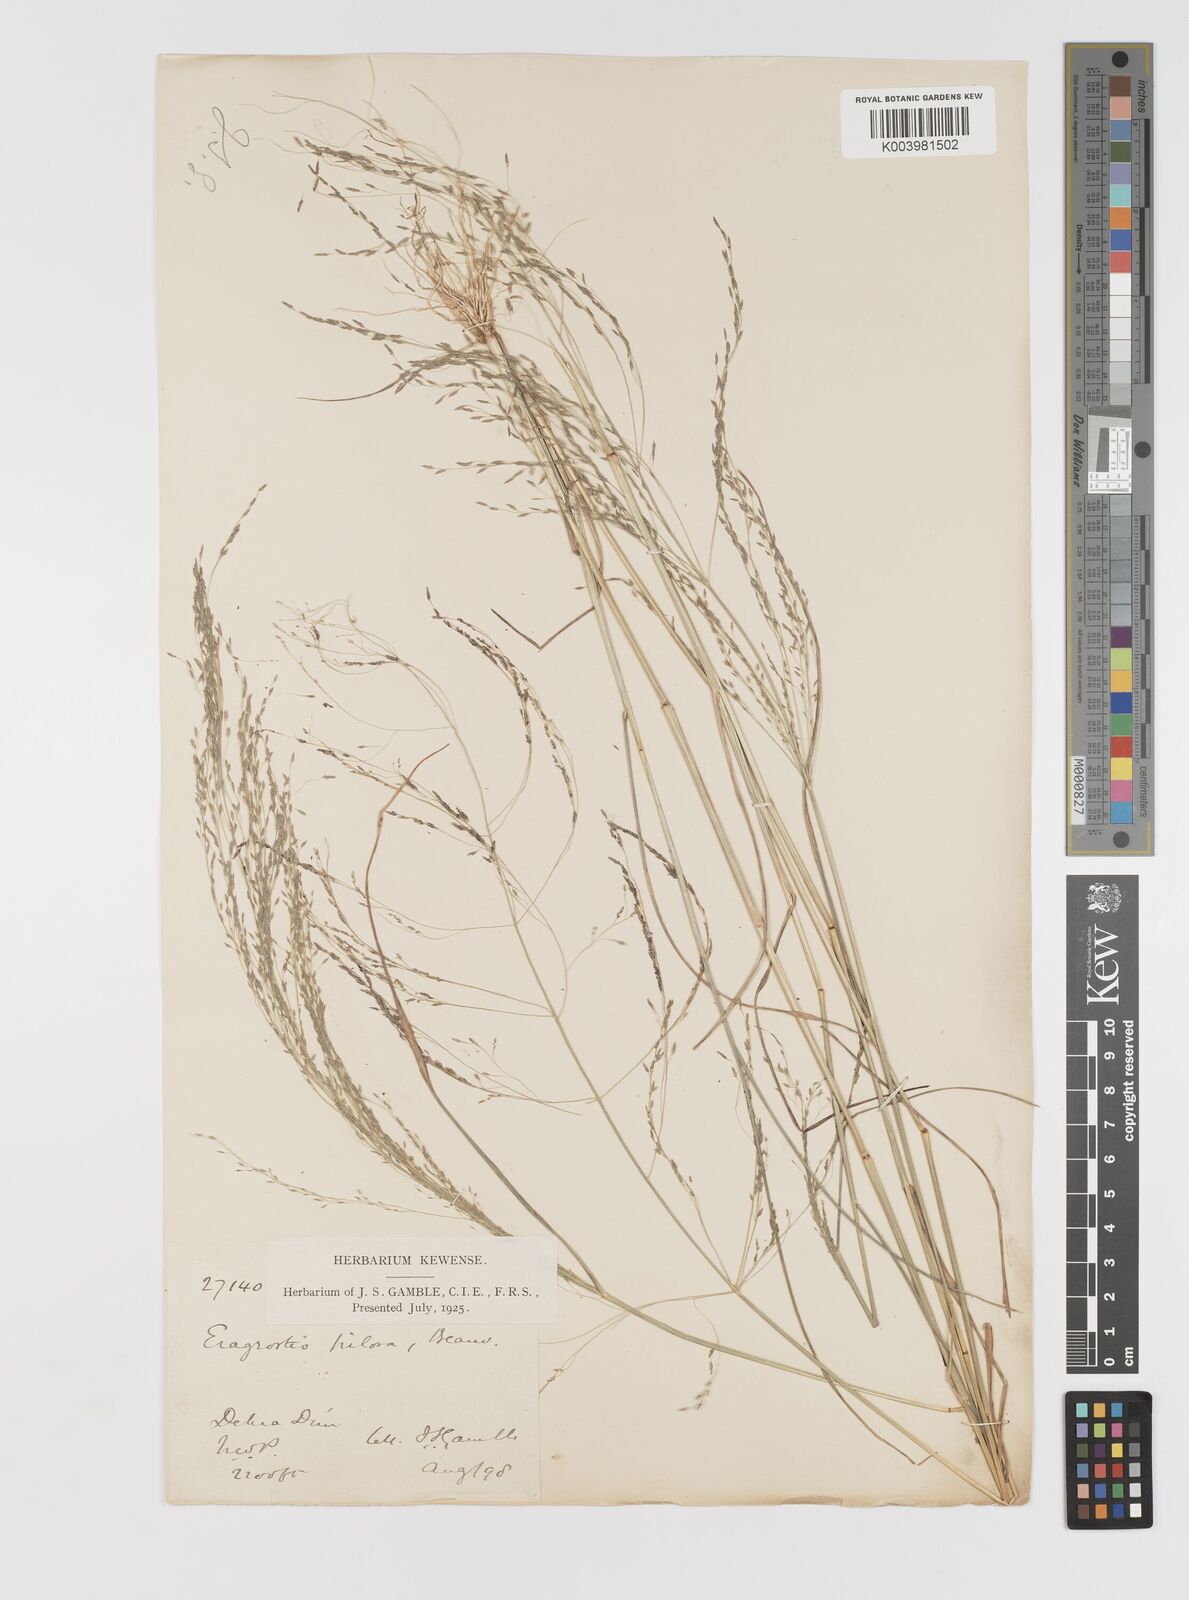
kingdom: Plantae
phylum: Tracheophyta
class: Liliopsida
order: Poales
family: Poaceae
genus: Eragrostis
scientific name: Eragrostis pilosa
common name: Indian lovegrass
